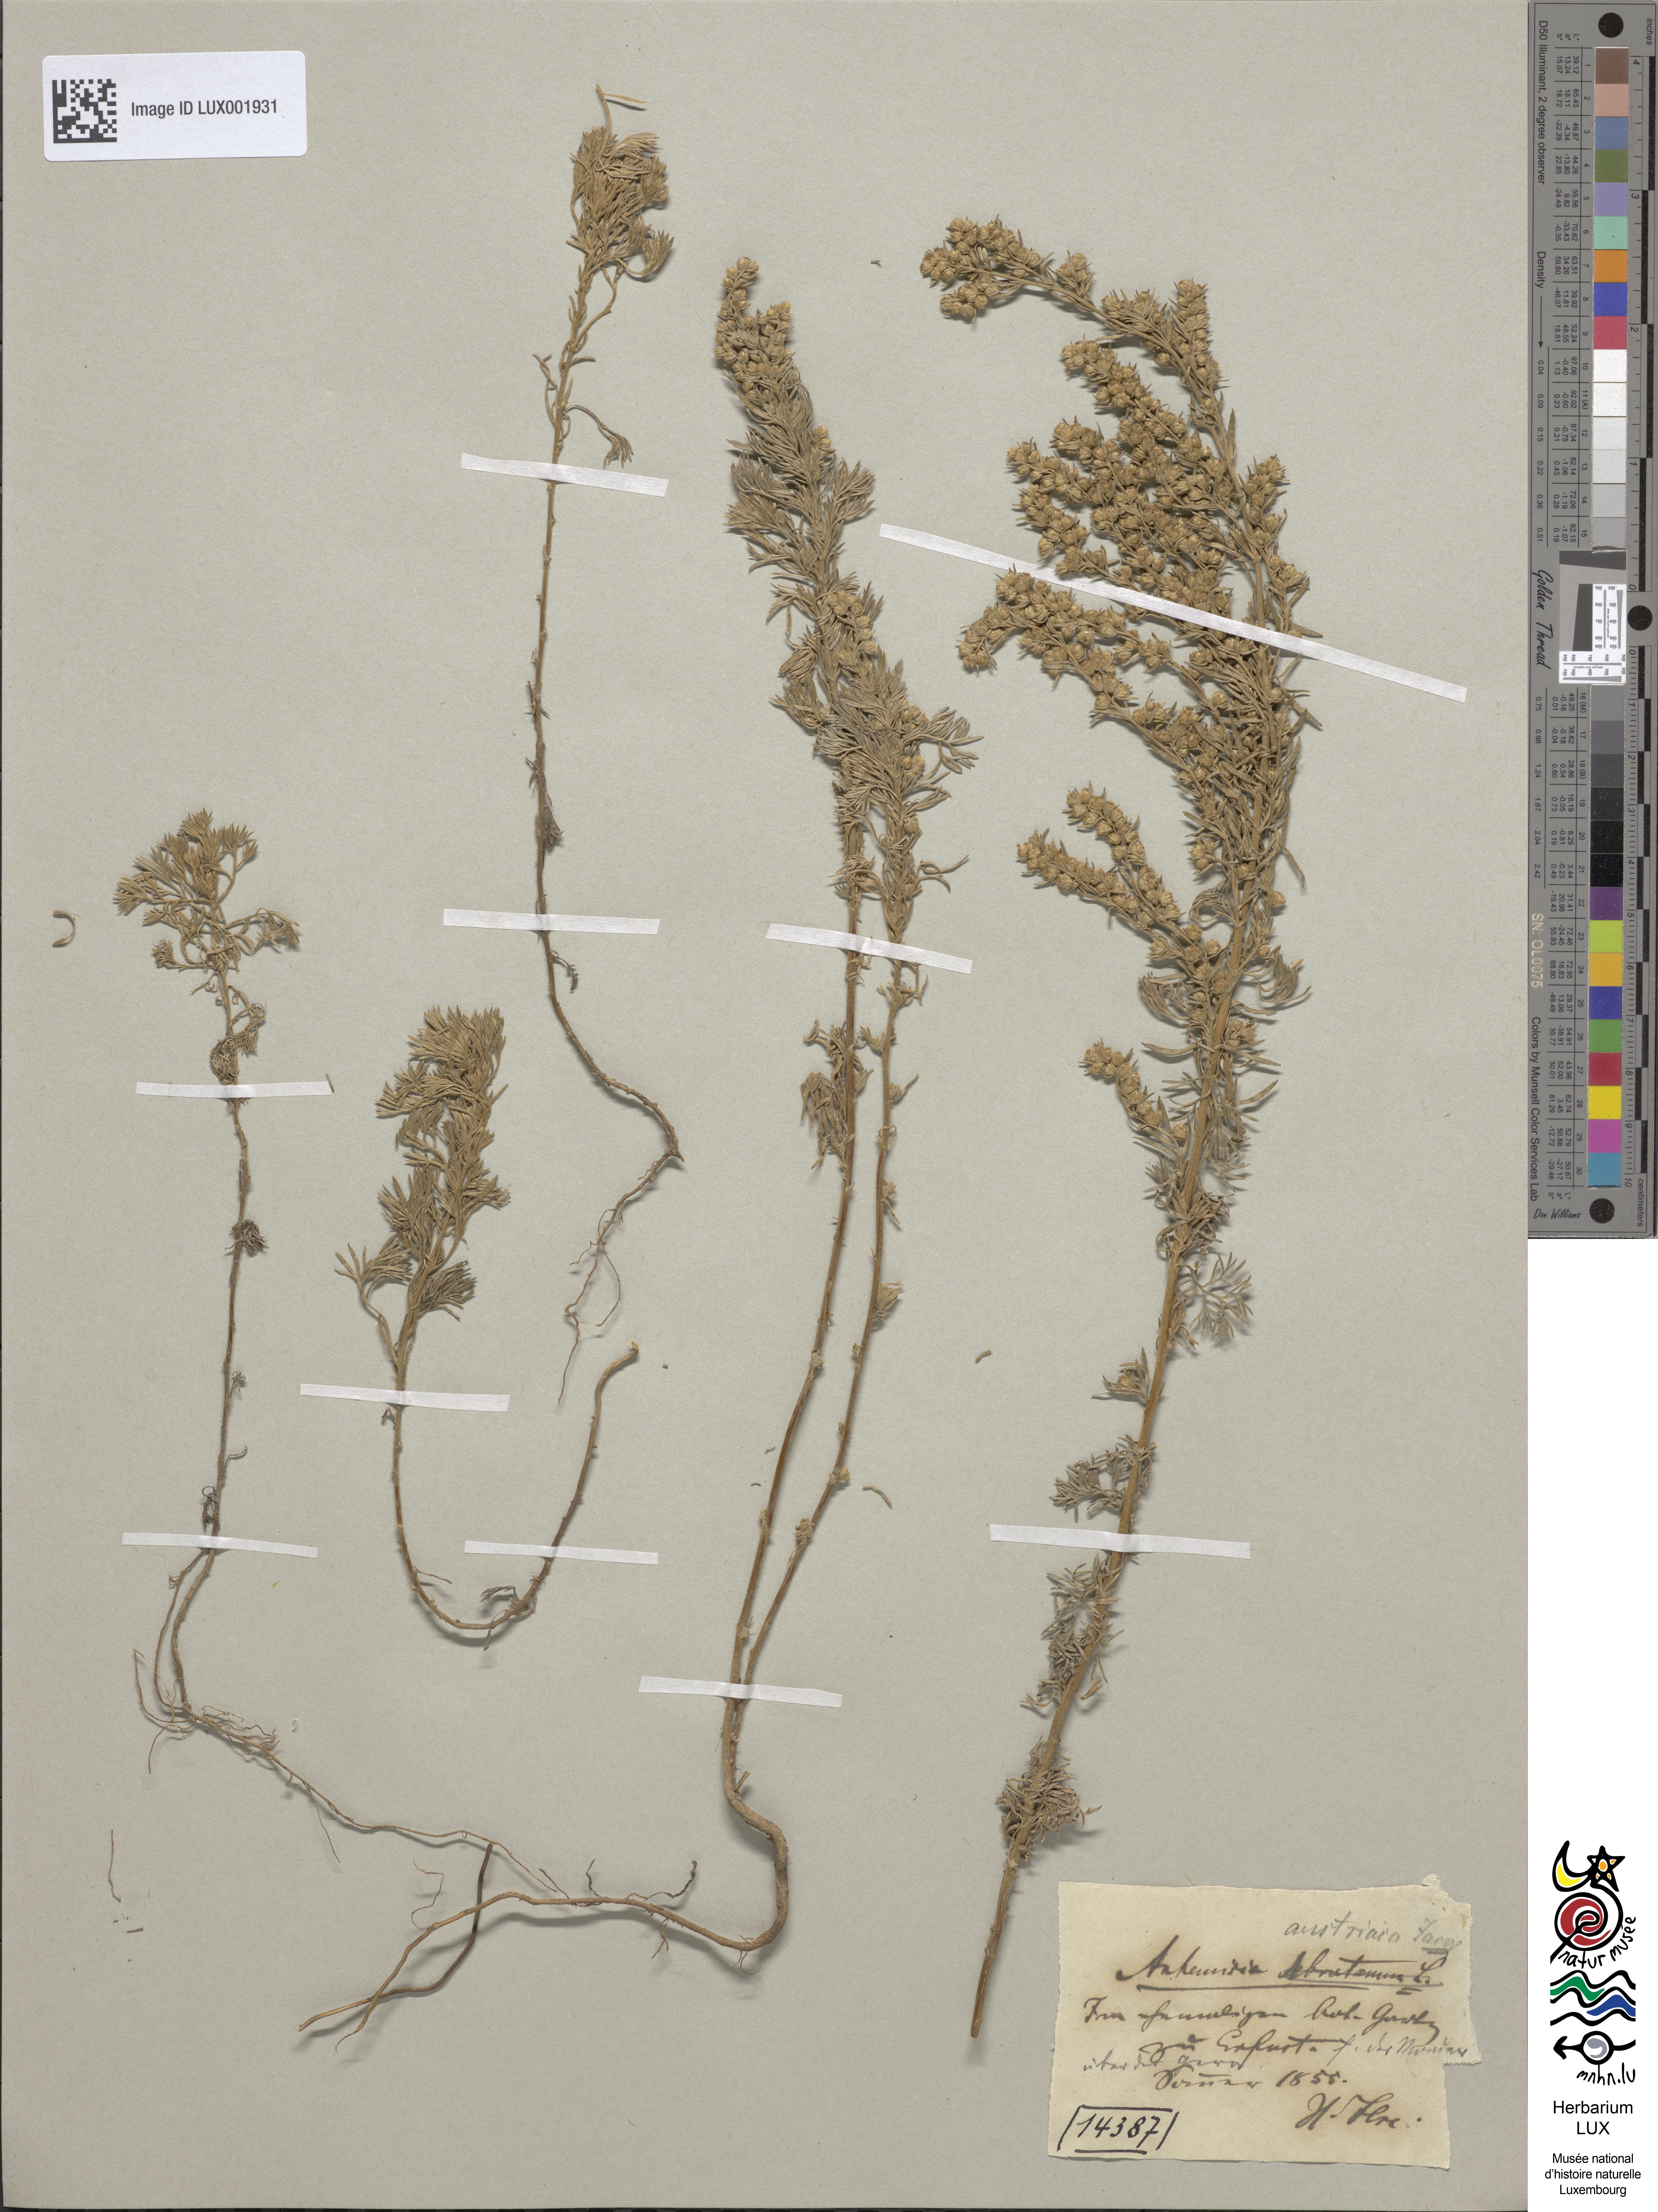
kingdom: Plantae
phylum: Tracheophyta
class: Magnoliopsida
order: Asterales
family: Asteraceae
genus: Artemisia
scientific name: Artemisia austriaca
